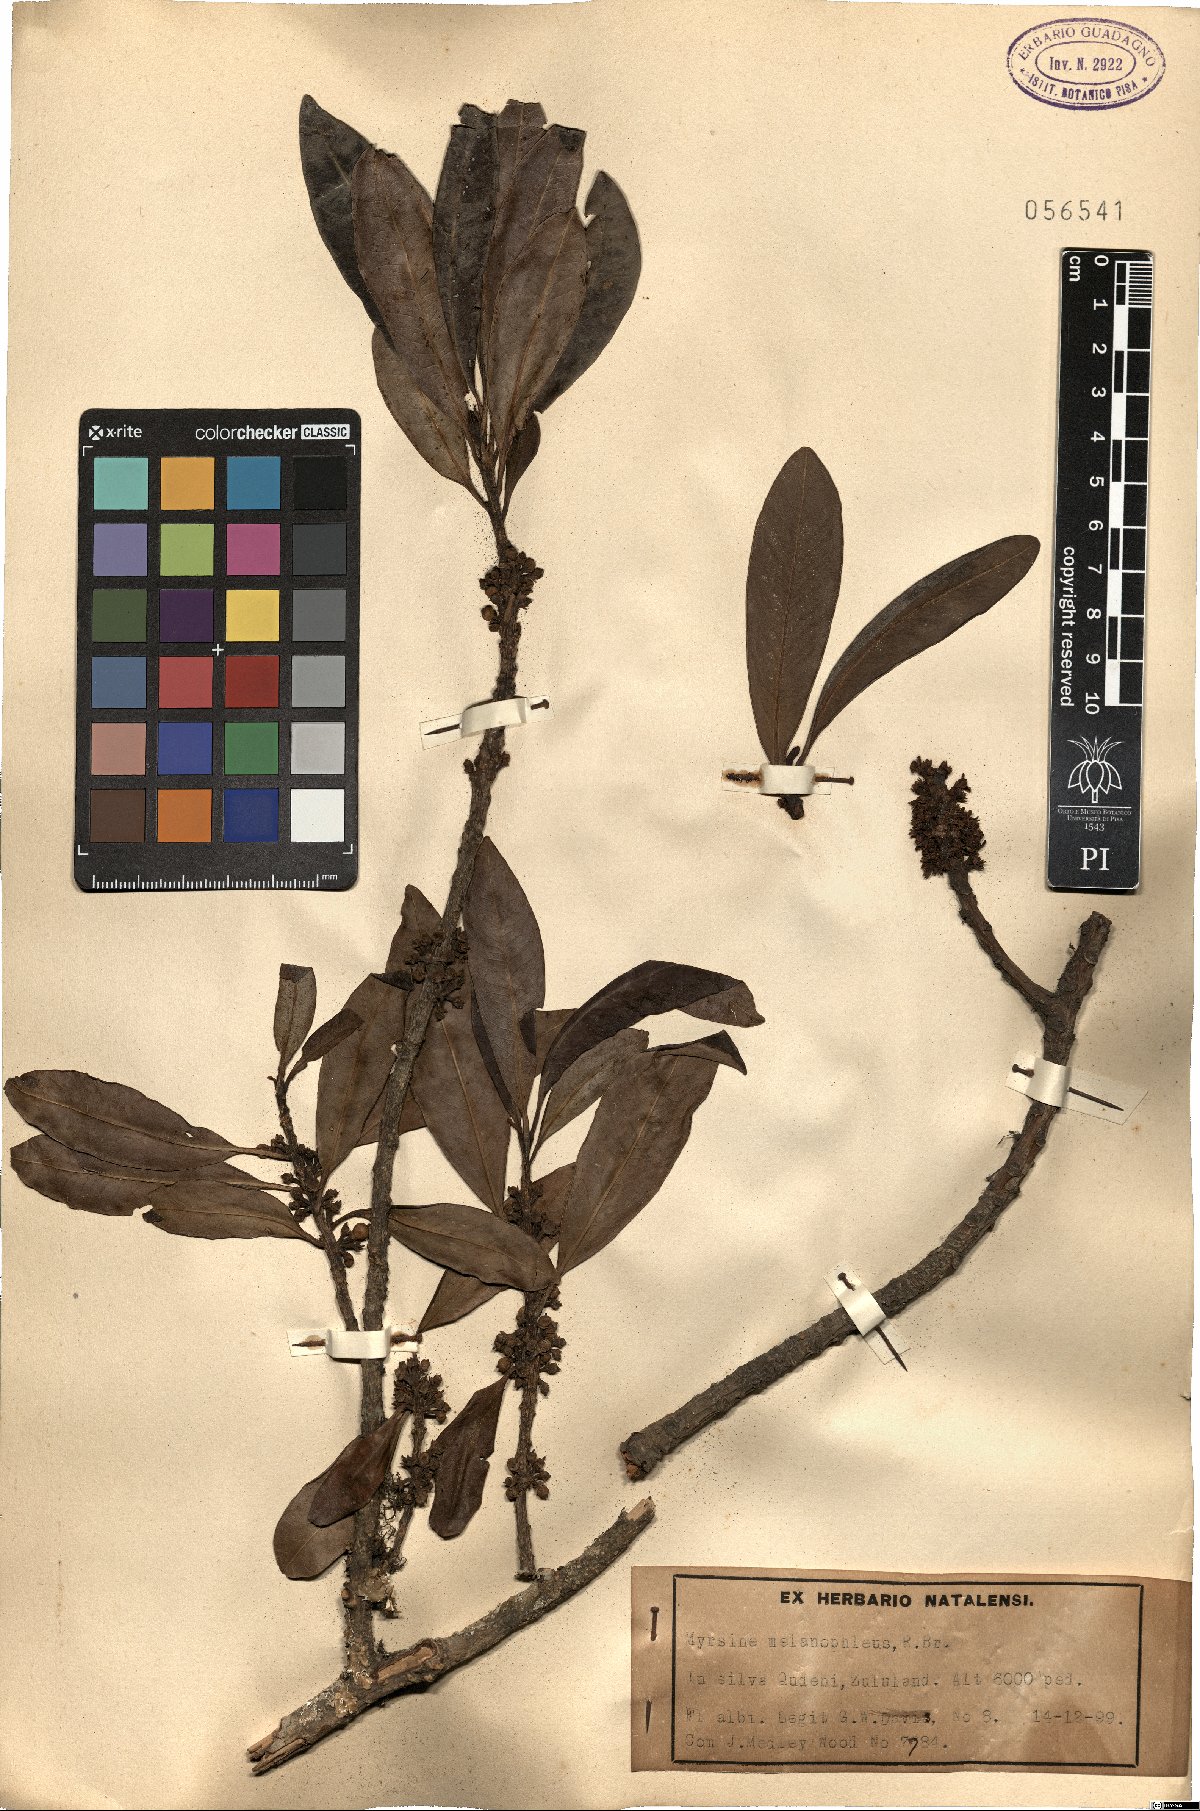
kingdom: Plantae
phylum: Tracheophyta
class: Magnoliopsida
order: Ericales
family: Primulaceae
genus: Myrsine
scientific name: Myrsine melanophloeos
